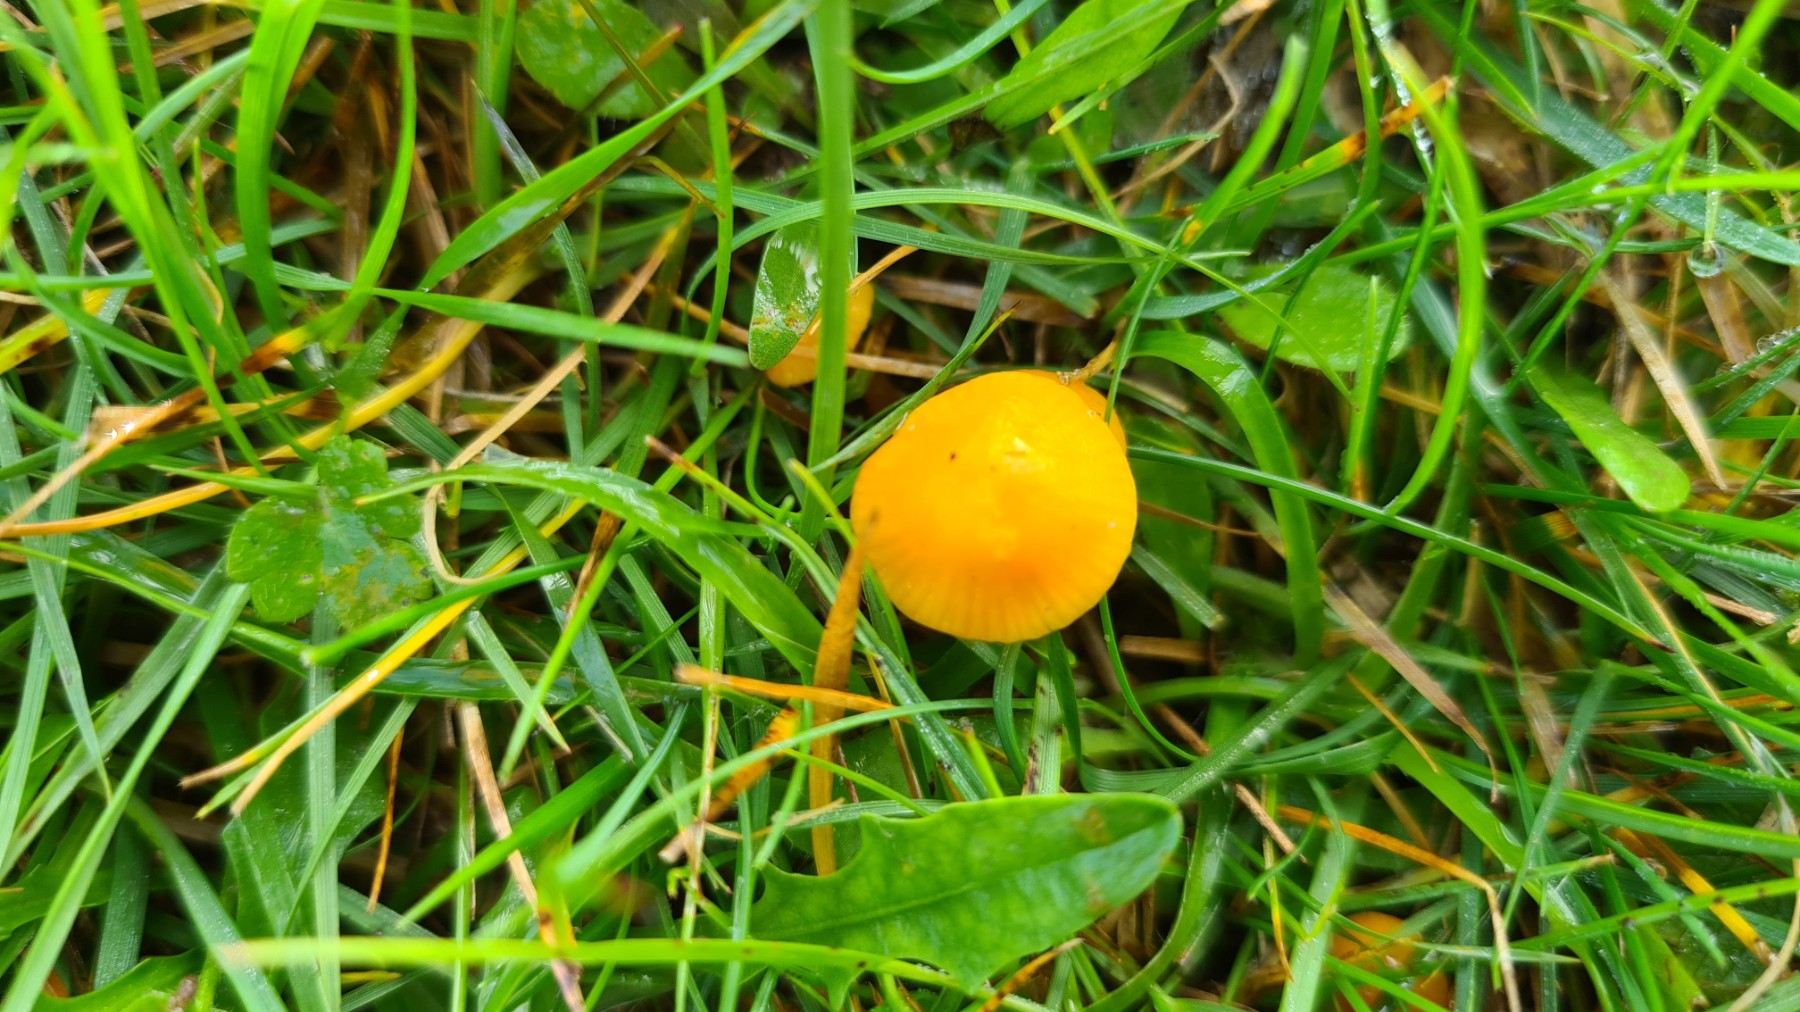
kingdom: Fungi
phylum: Basidiomycota
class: Agaricomycetes
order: Agaricales
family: Hygrophoraceae
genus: Hygrocybe
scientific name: Hygrocybe ceracea
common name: voksgul vokshat
